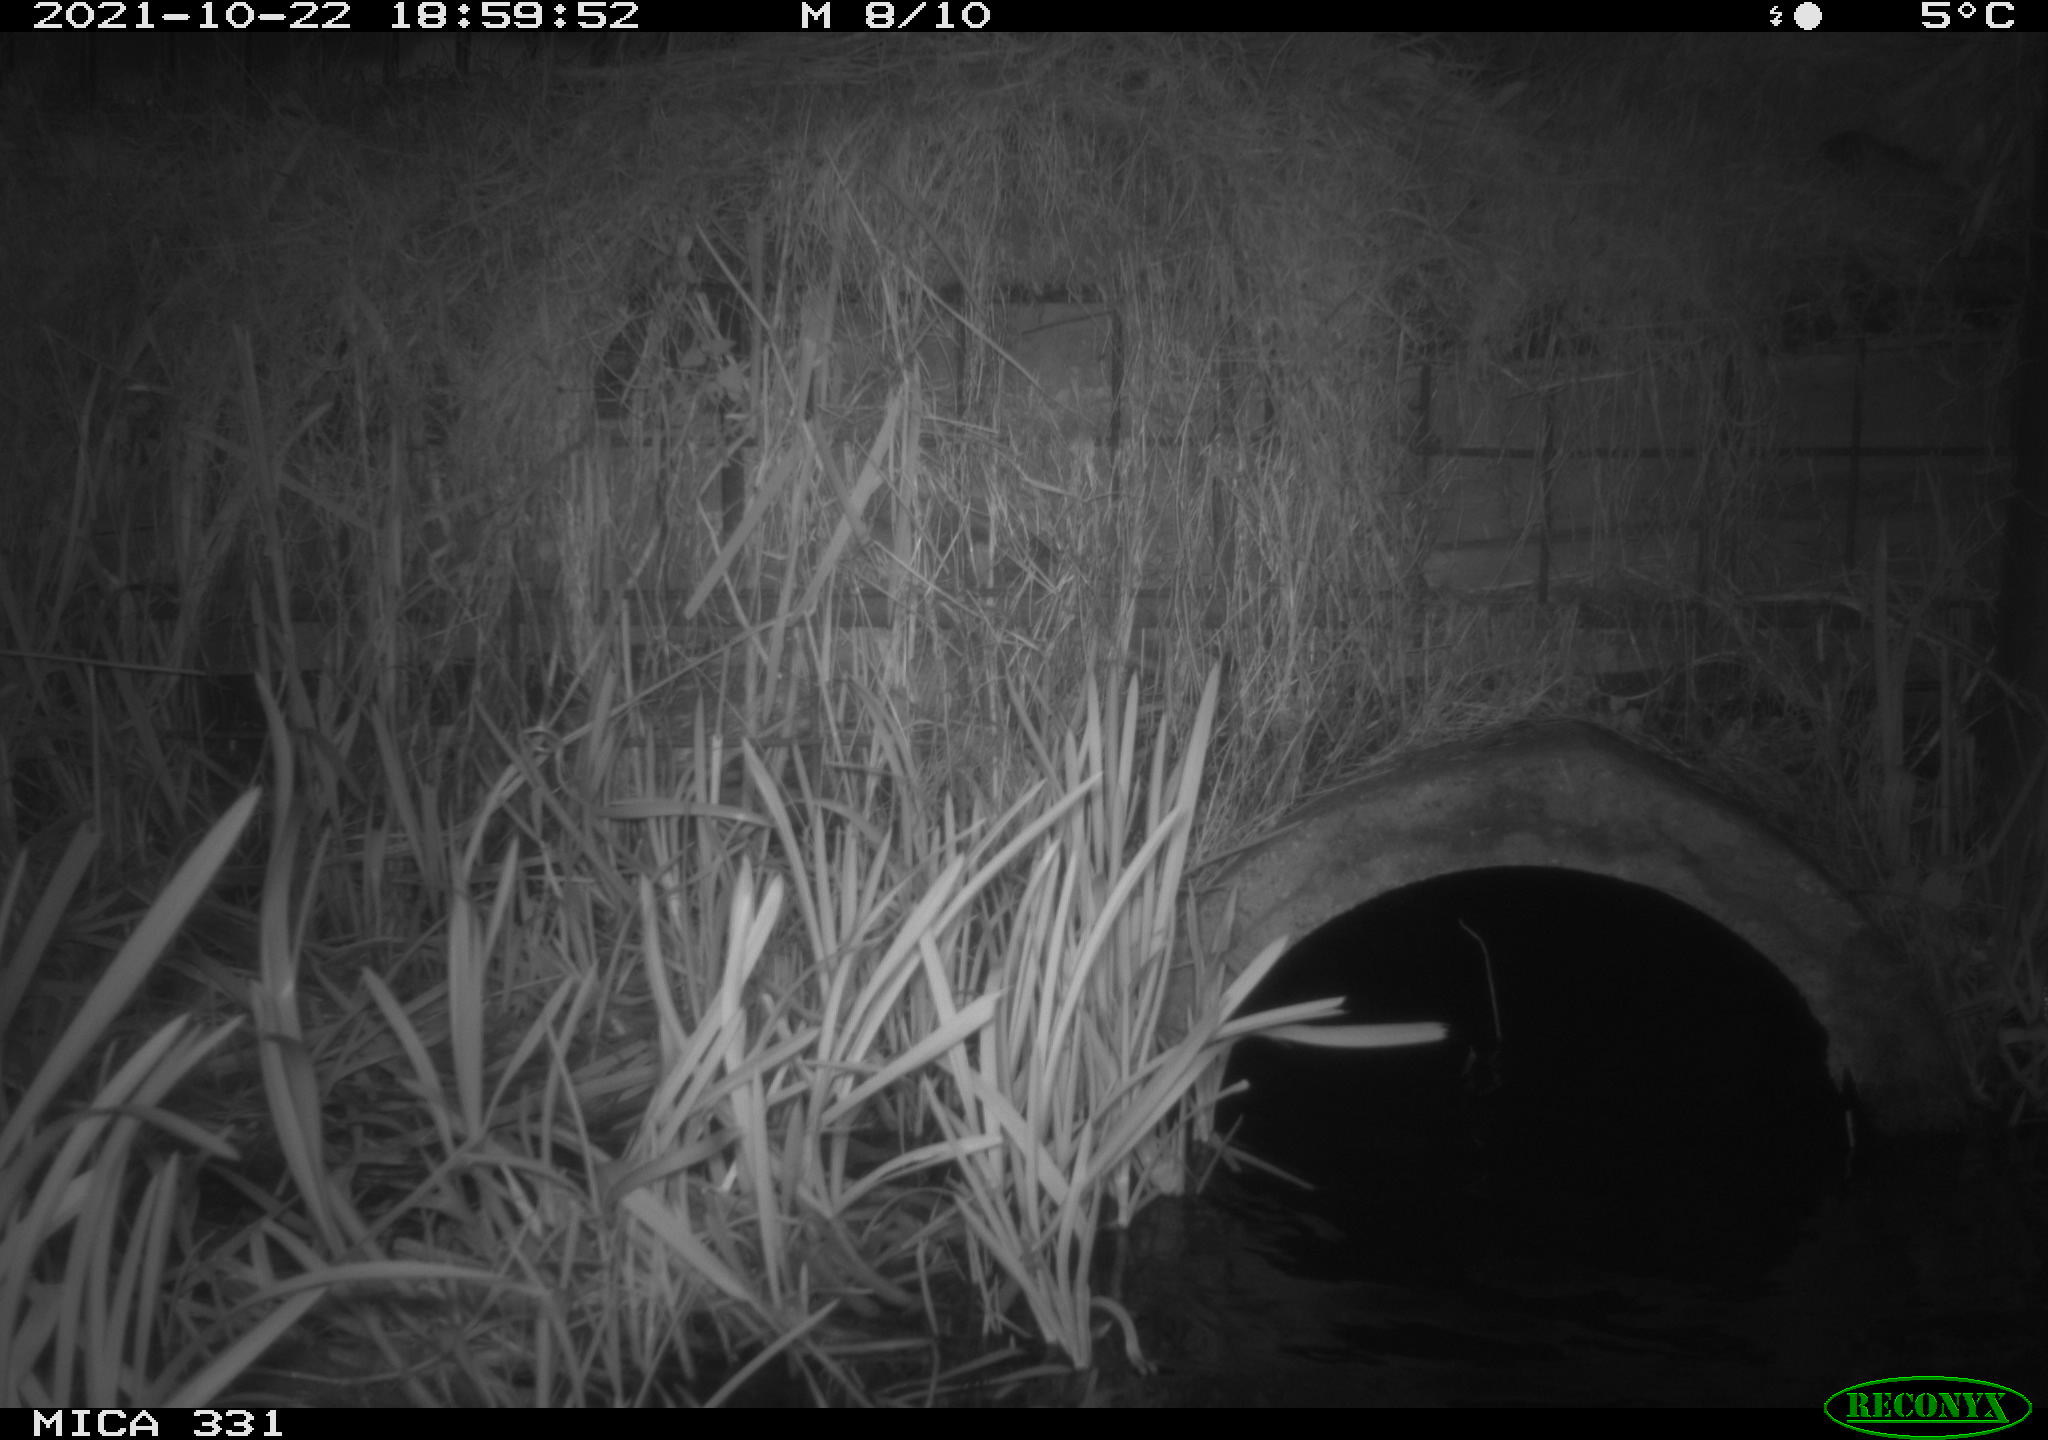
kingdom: Animalia
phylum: Chordata
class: Mammalia
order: Rodentia
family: Muridae
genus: Rattus
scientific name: Rattus norvegicus
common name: Brown rat
